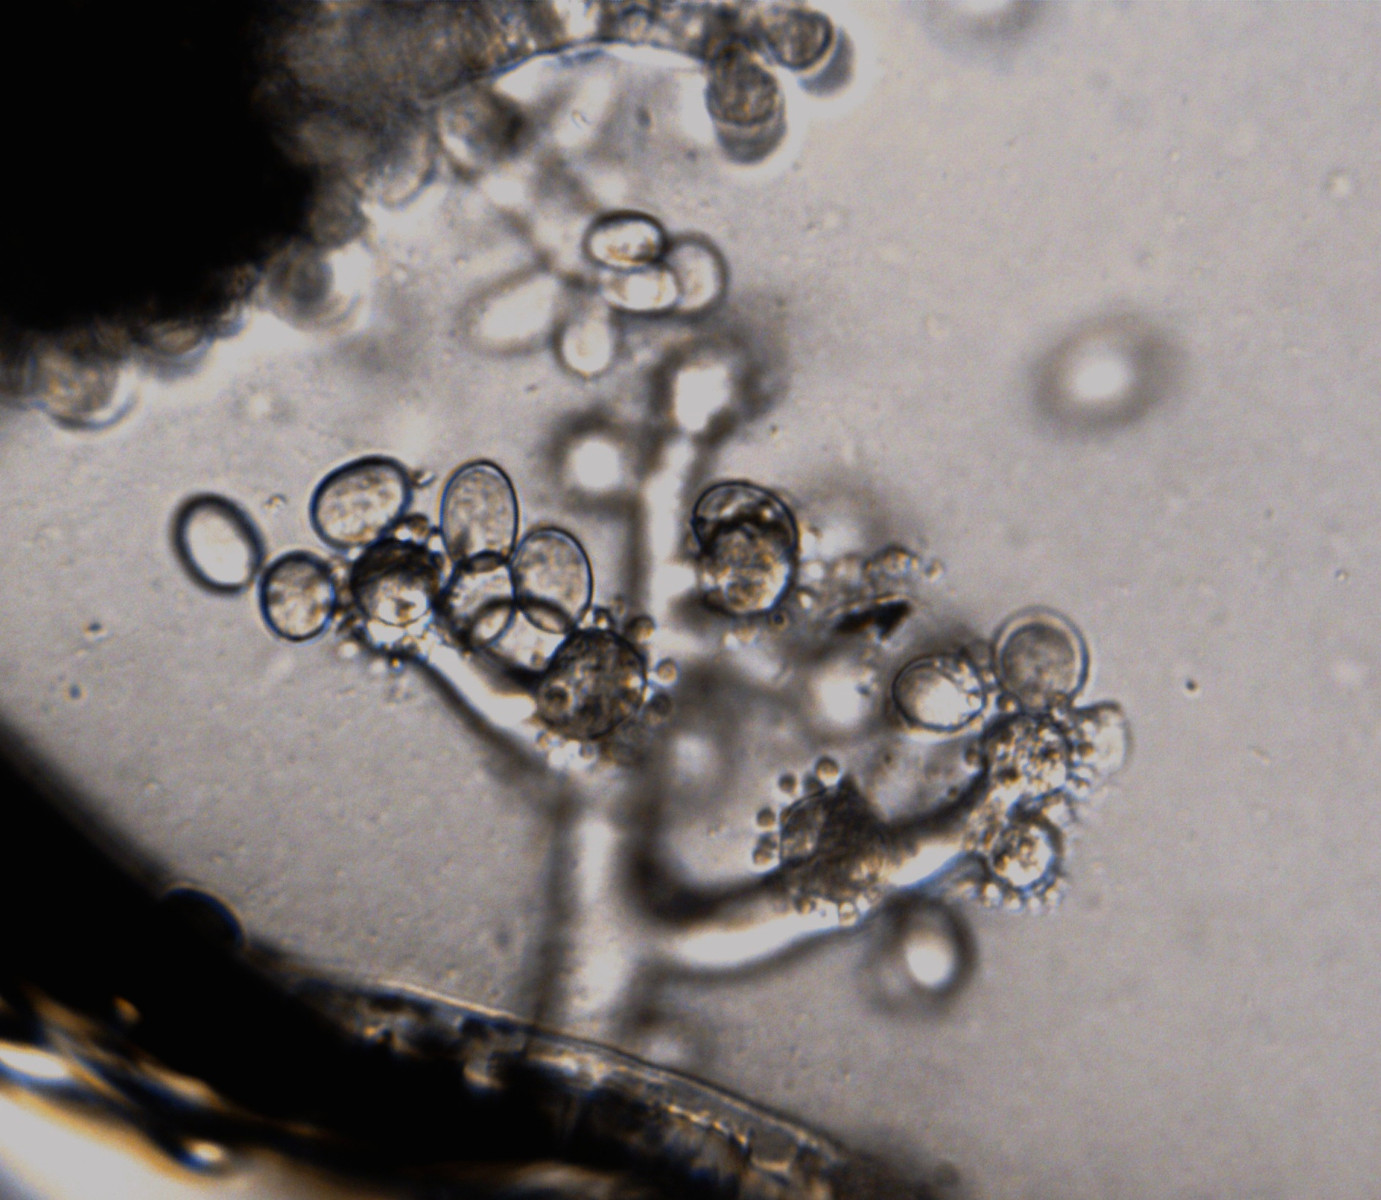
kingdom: Fungi
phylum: Ascomycota
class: Leotiomycetes
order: Helotiales
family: Sclerotiniaceae
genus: Botrytis
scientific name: Botrytis cinerea
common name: Grey mould
